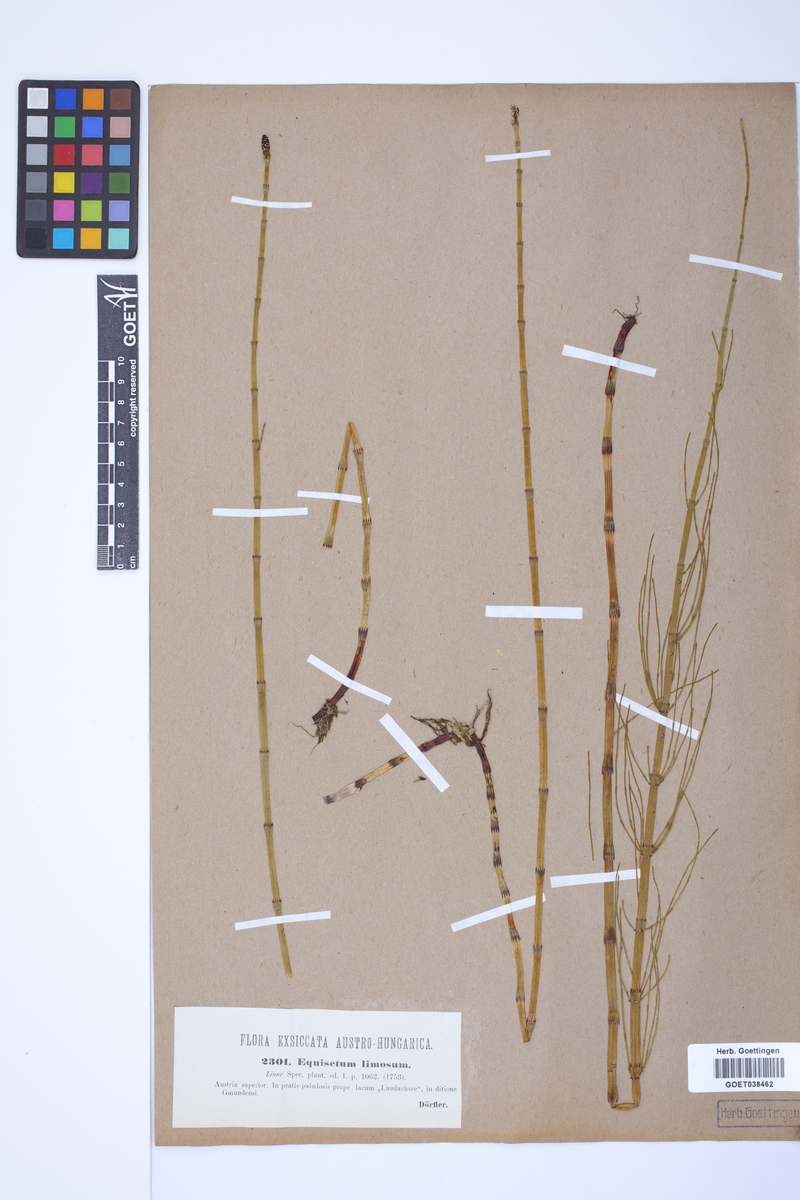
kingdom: Plantae
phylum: Tracheophyta
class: Polypodiopsida
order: Equisetales
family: Equisetaceae
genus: Equisetum
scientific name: Equisetum fluviatile
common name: Water horsetail
